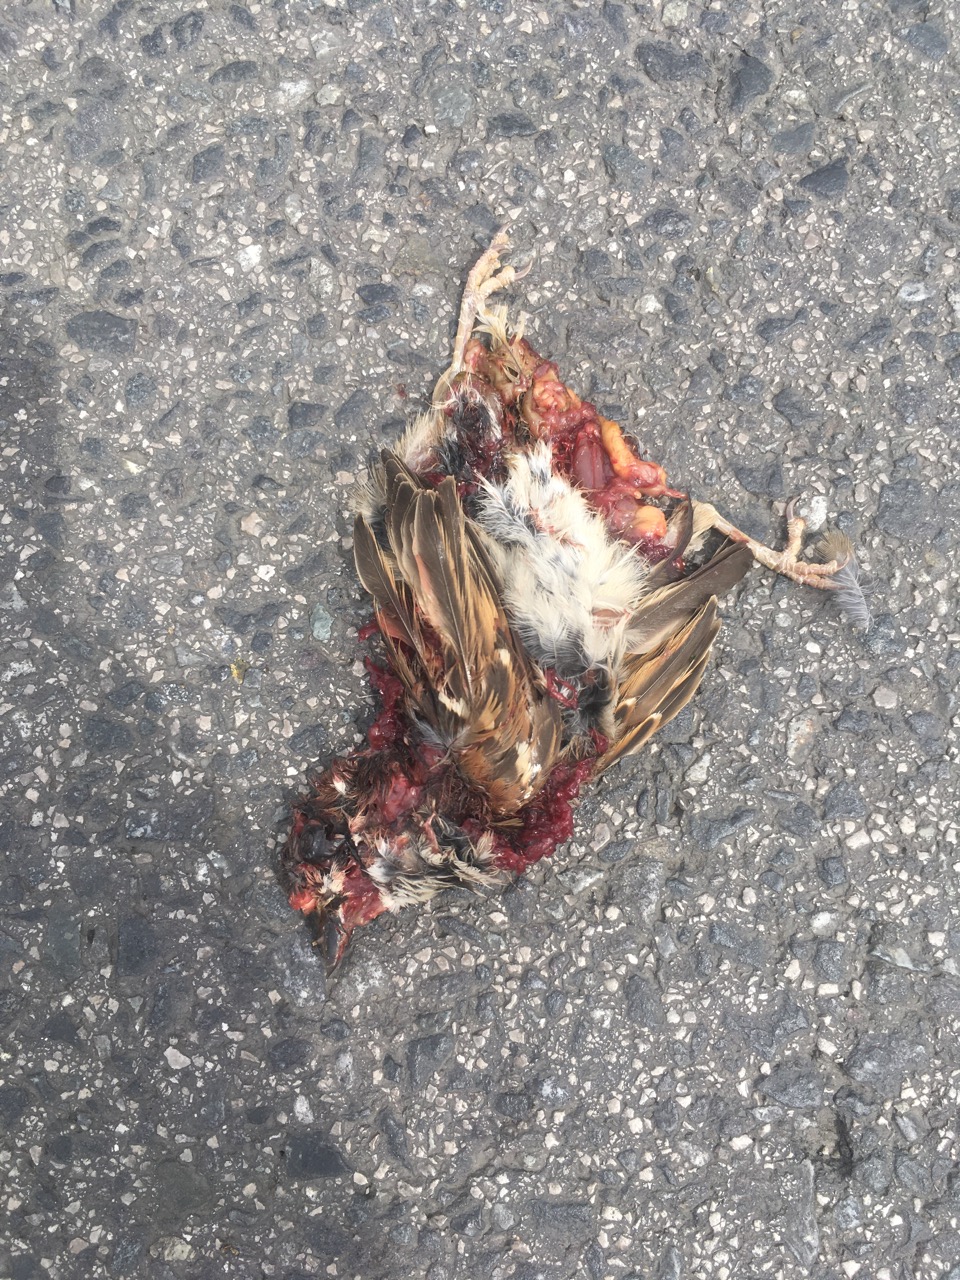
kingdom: Animalia
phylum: Chordata
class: Aves
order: Passeriformes
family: Passeridae
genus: Passer
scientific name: Passer montanus
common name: Eurasian tree sparrow
